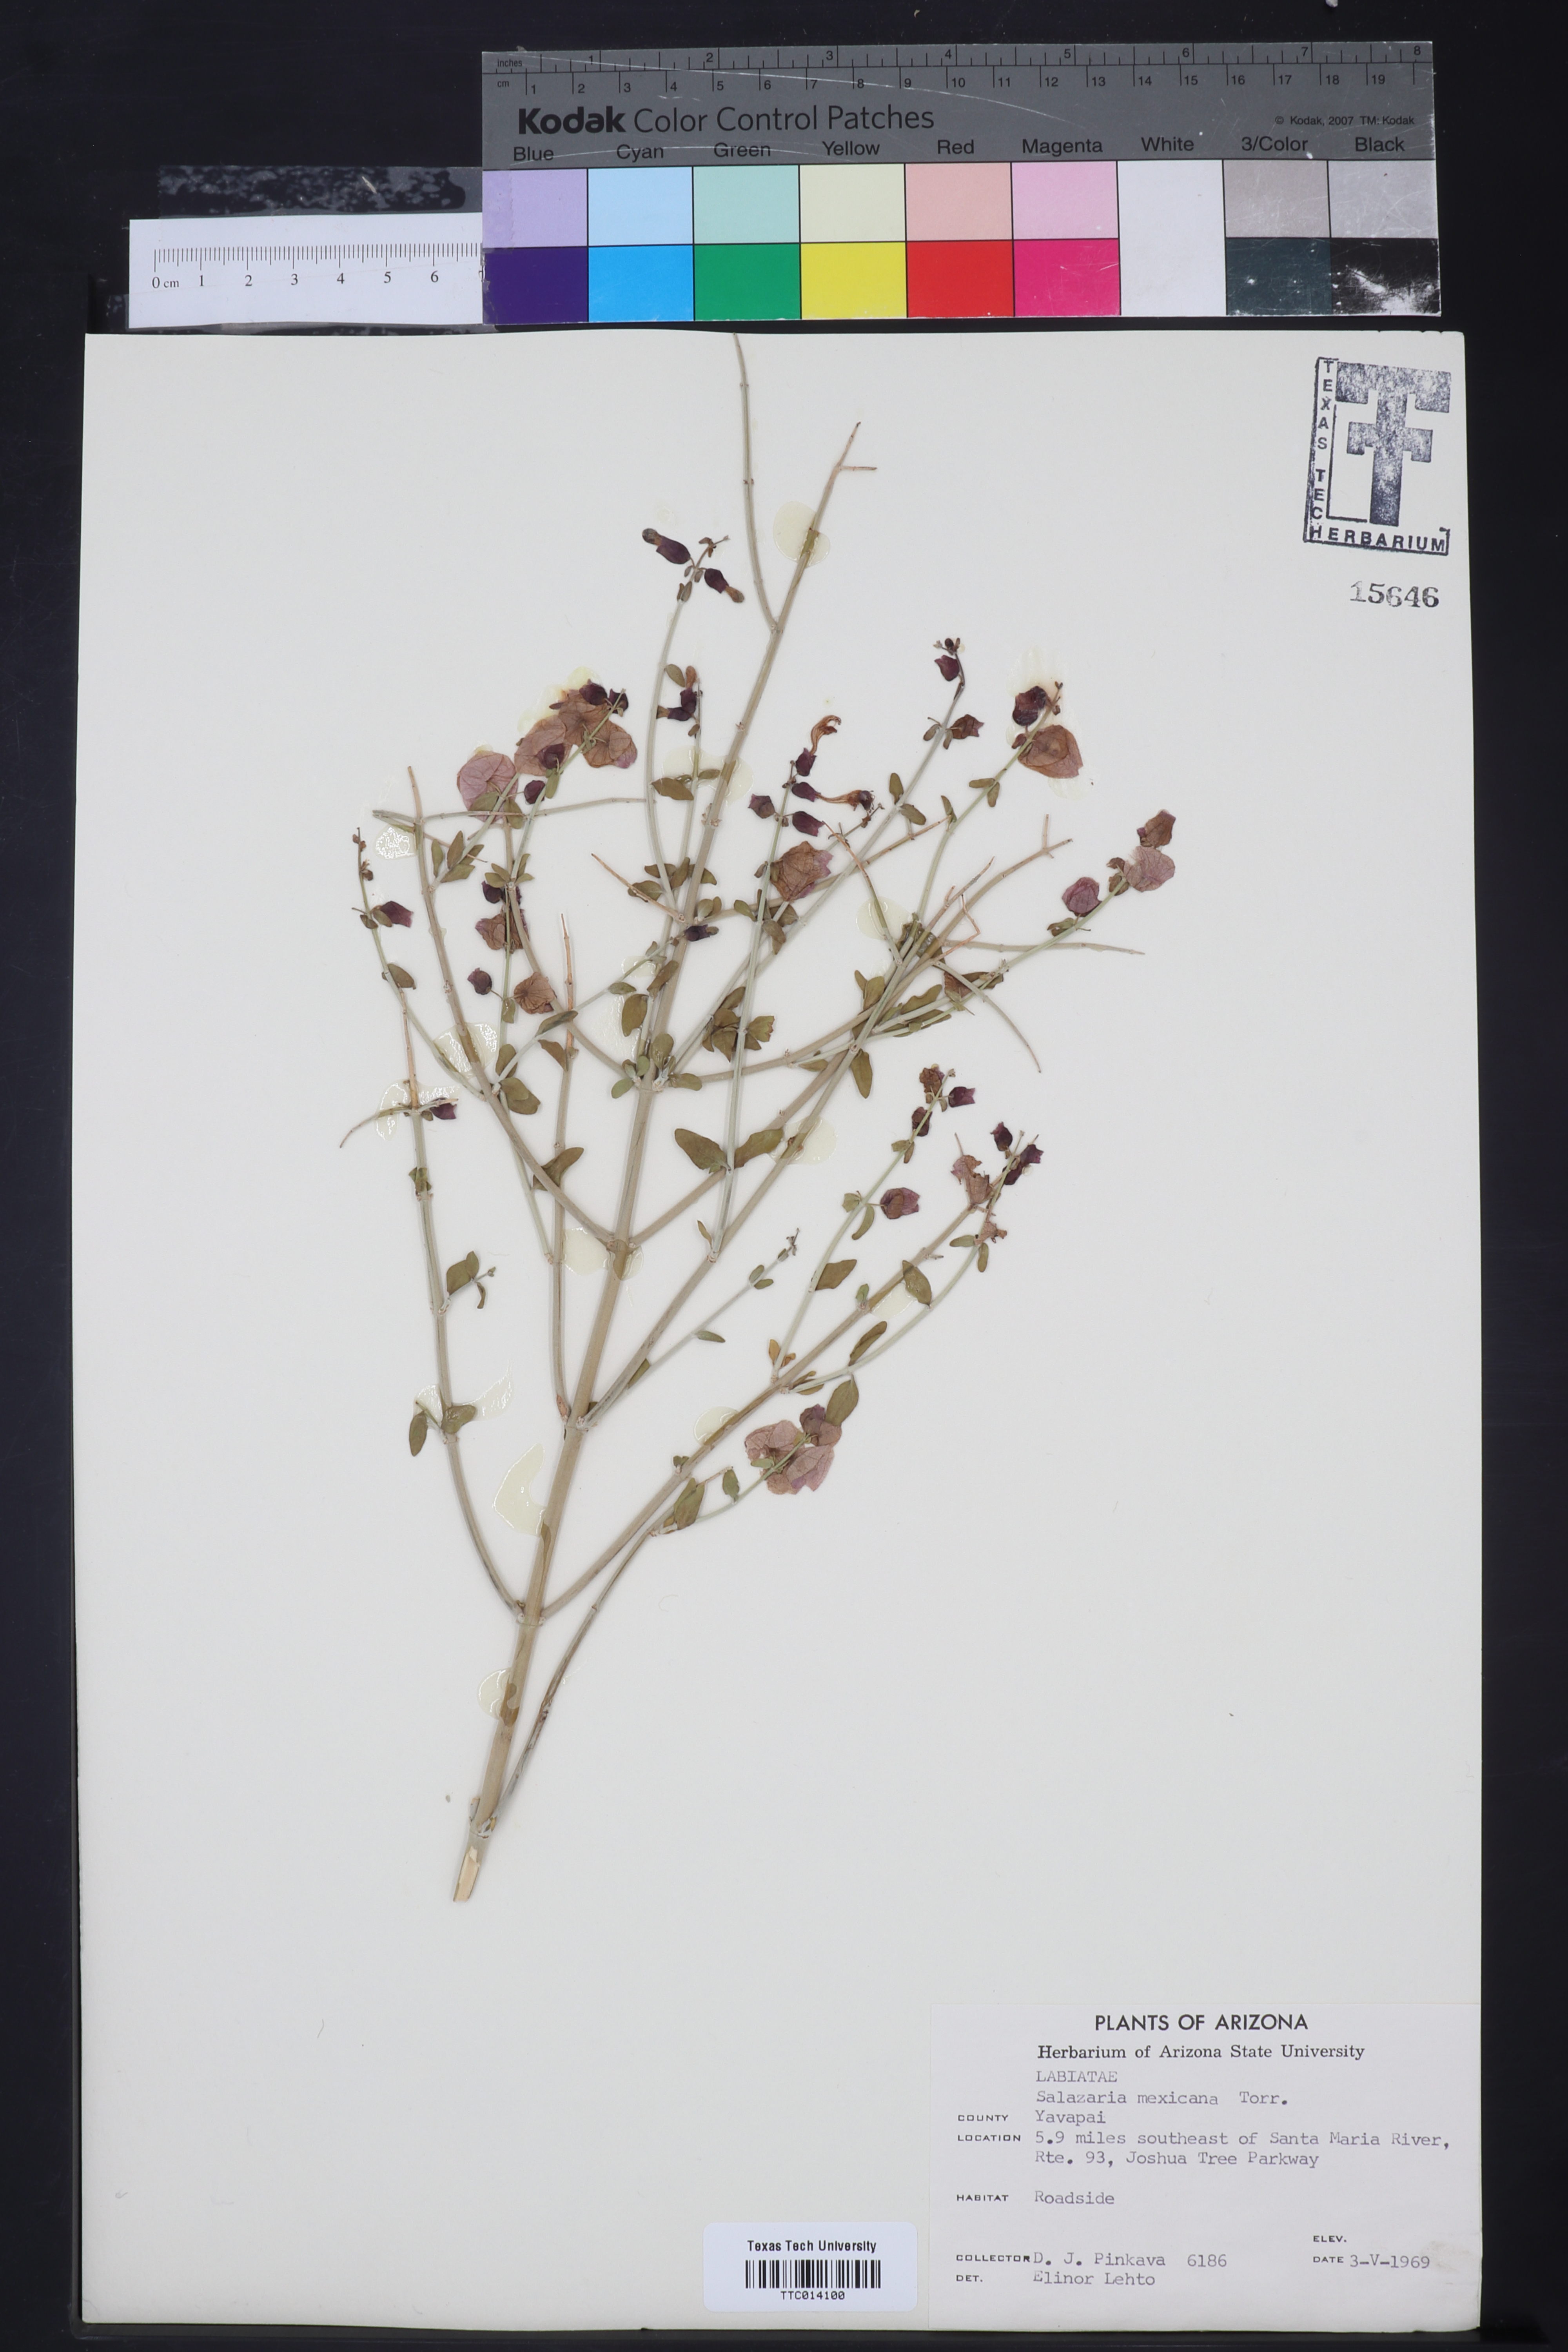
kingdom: Plantae
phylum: Tracheophyta
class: Magnoliopsida
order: Lamiales
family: Lamiaceae
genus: Scutellaria
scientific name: Scutellaria mexicana
